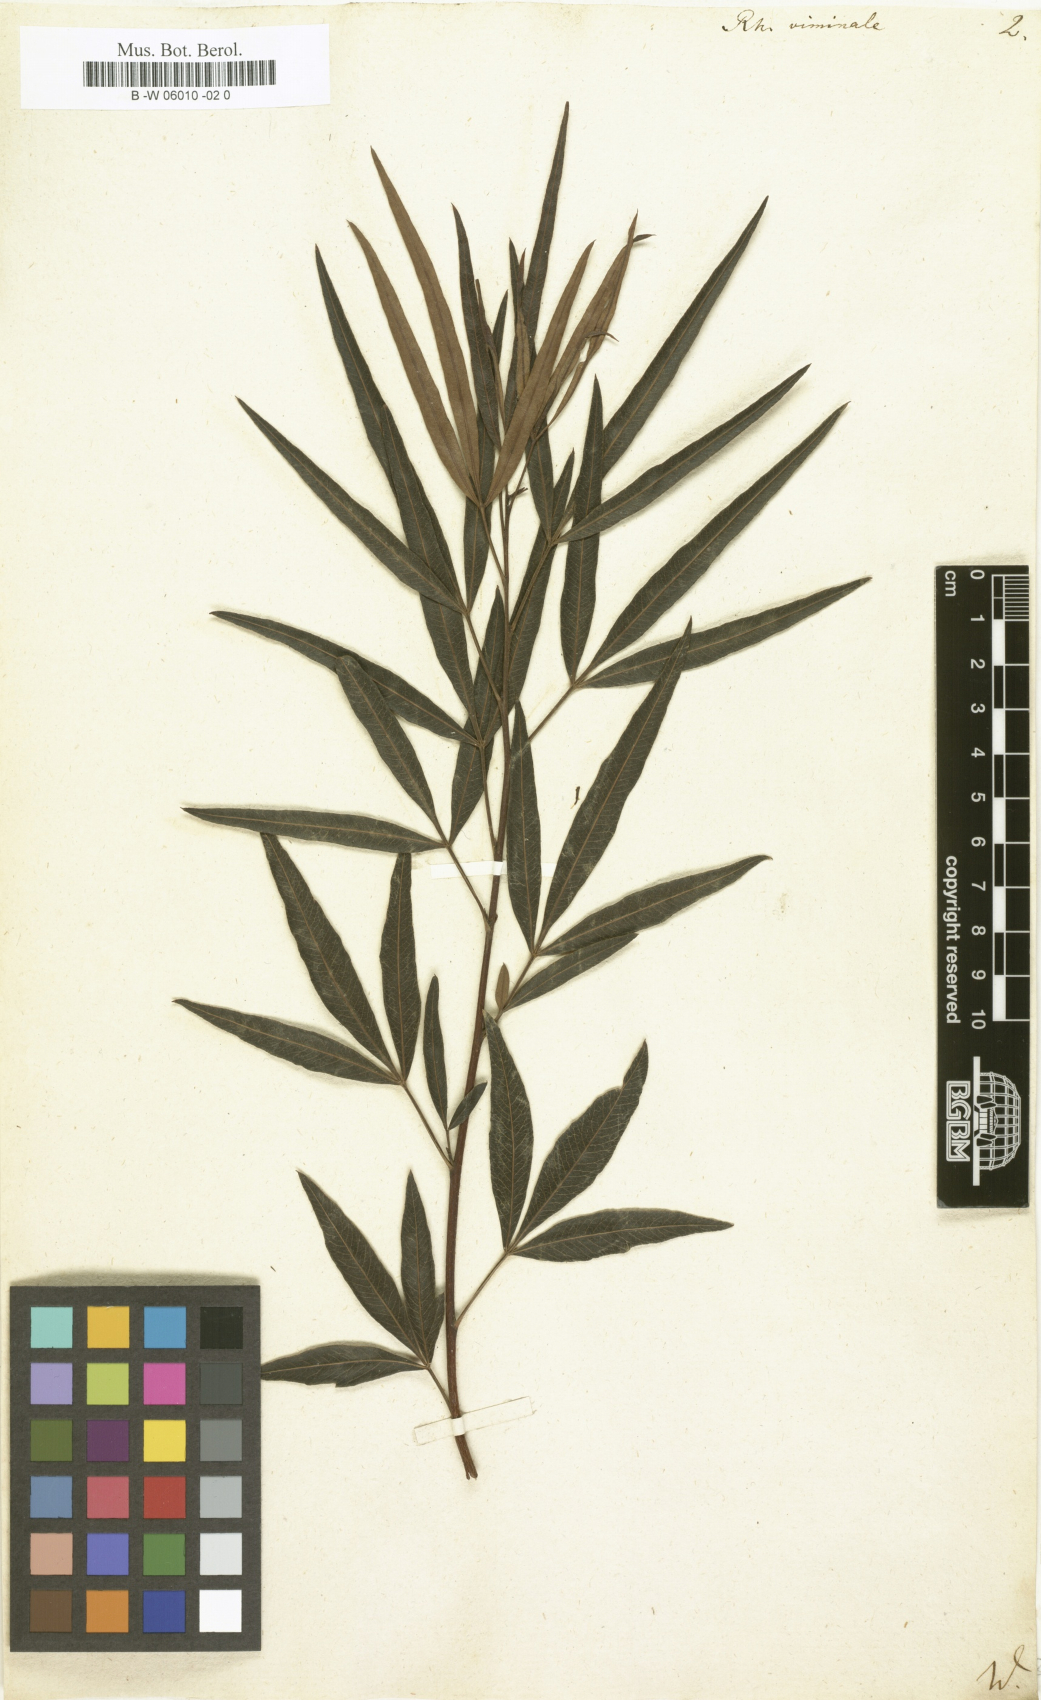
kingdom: Plantae
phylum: Tracheophyta
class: Magnoliopsida
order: Sapindales
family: Anacardiaceae
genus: Searsia
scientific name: Searsia
